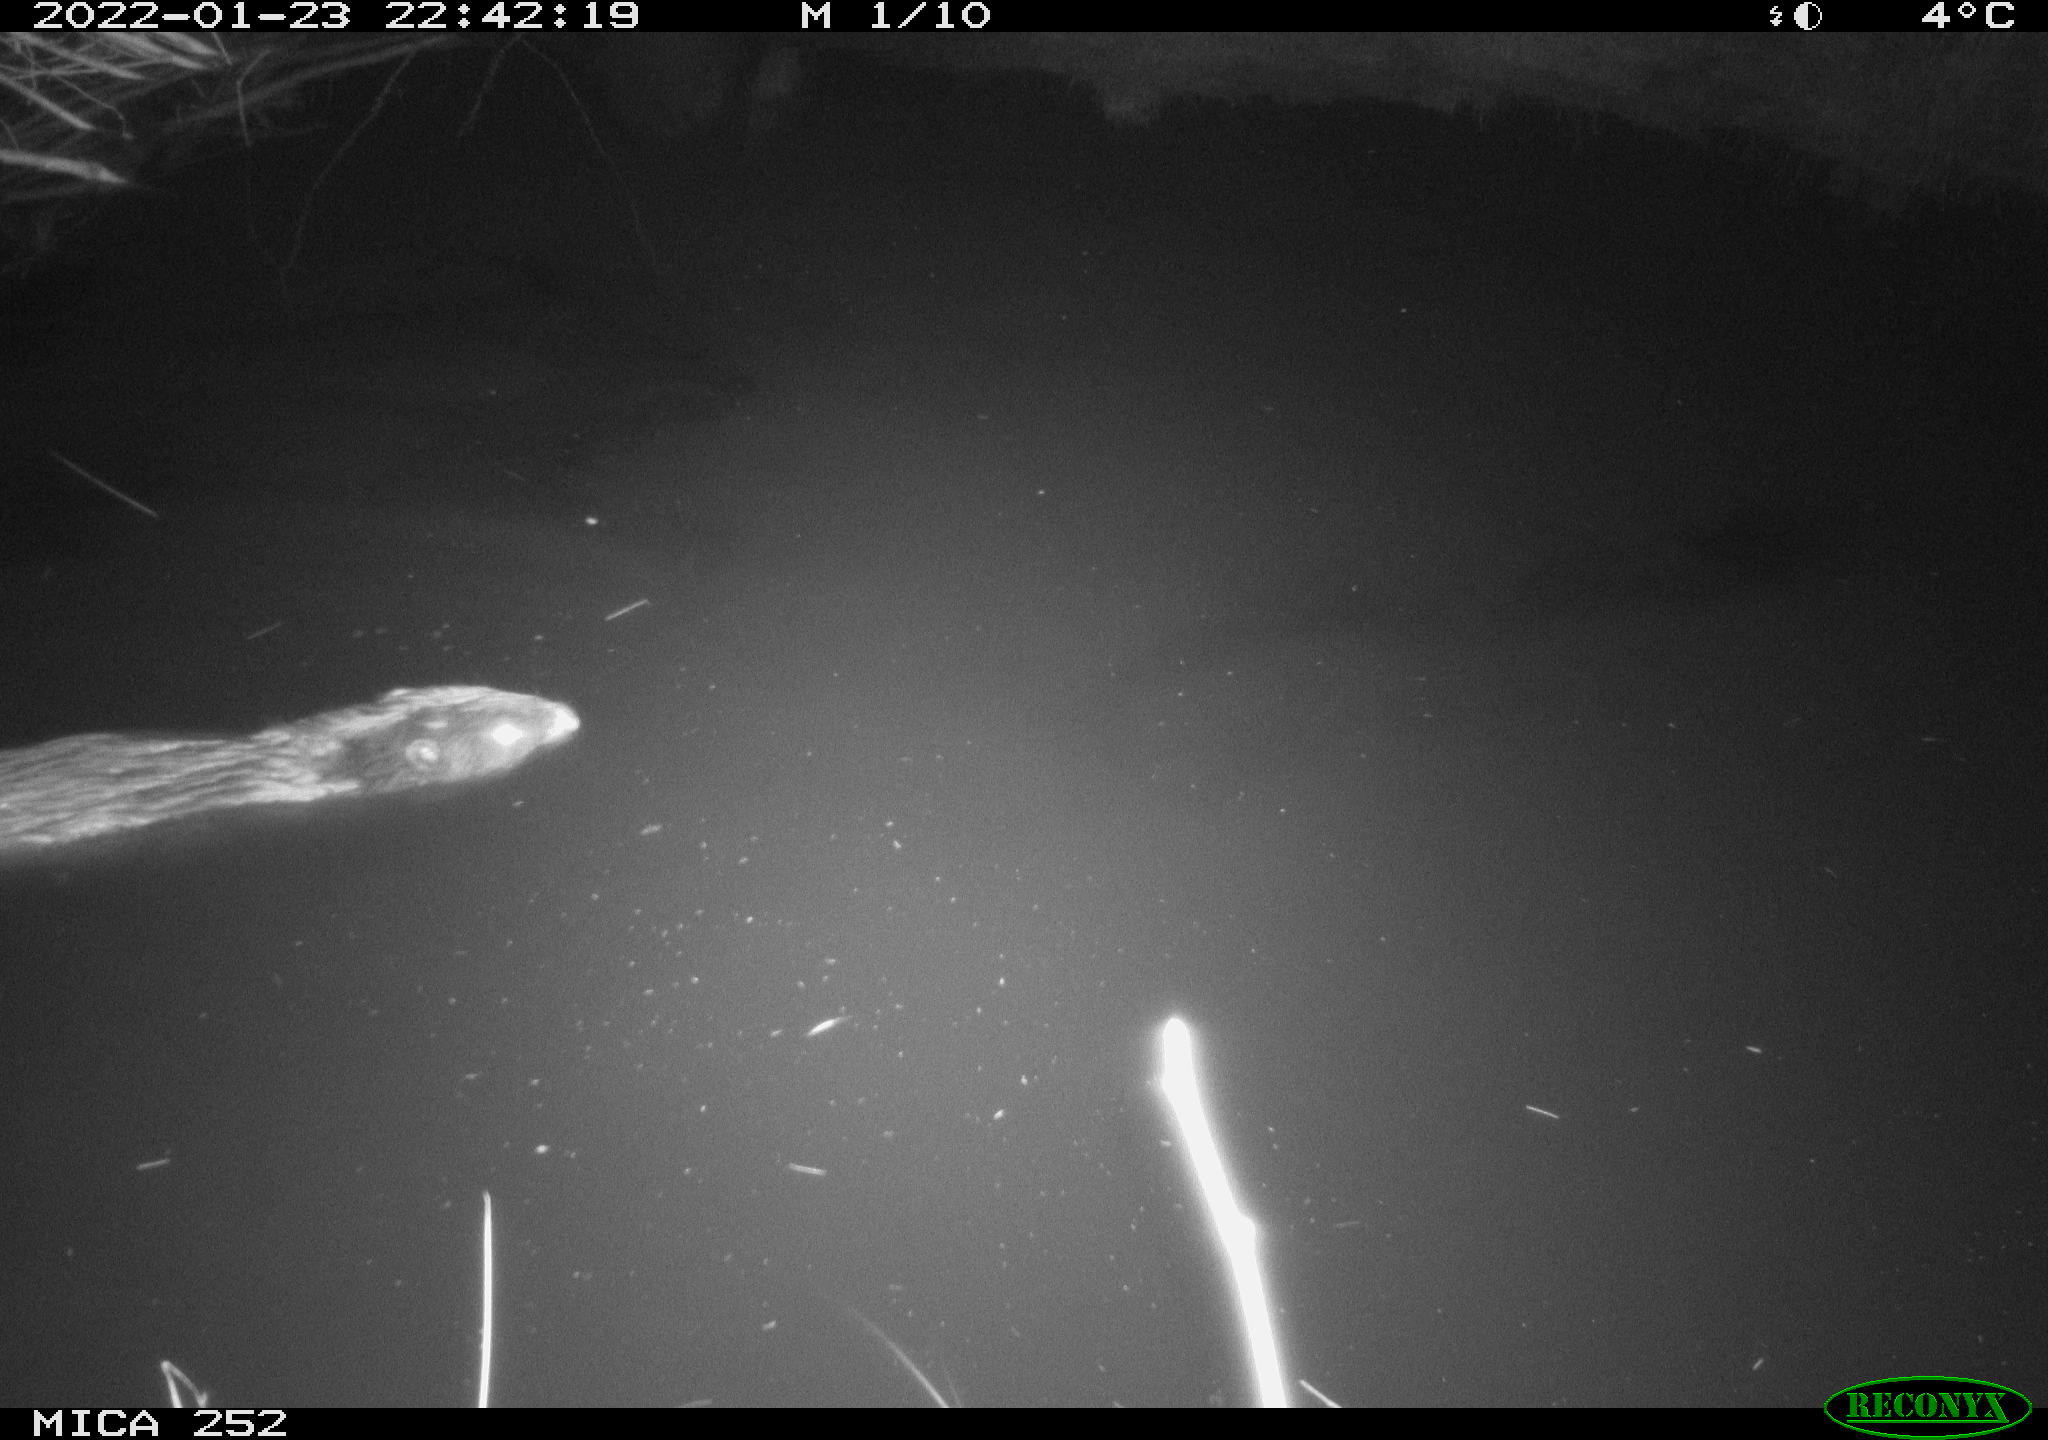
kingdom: Animalia
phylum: Chordata
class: Mammalia
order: Rodentia
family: Castoridae
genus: Castor
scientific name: Castor fiber
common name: Eurasian beaver
